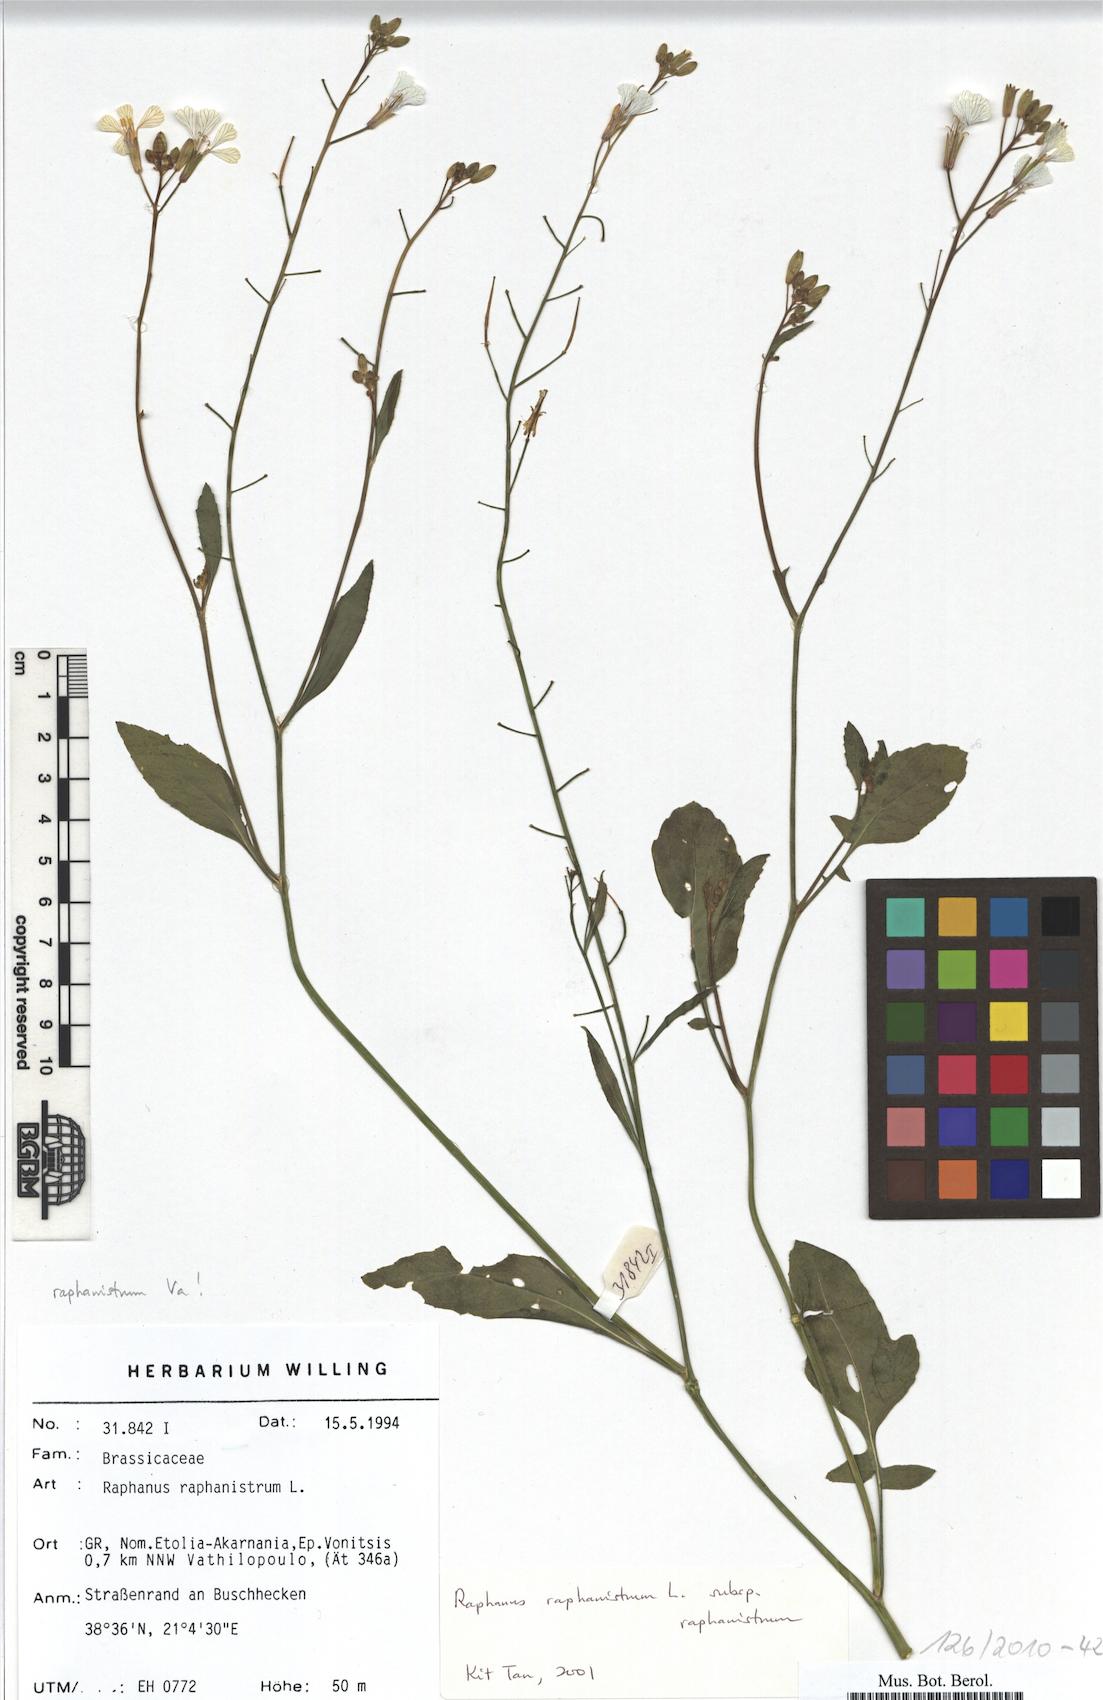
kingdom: Plantae
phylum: Tracheophyta
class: Magnoliopsida
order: Brassicales
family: Brassicaceae
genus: Raphanus
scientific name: Raphanus raphanistrum
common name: Wild radish
